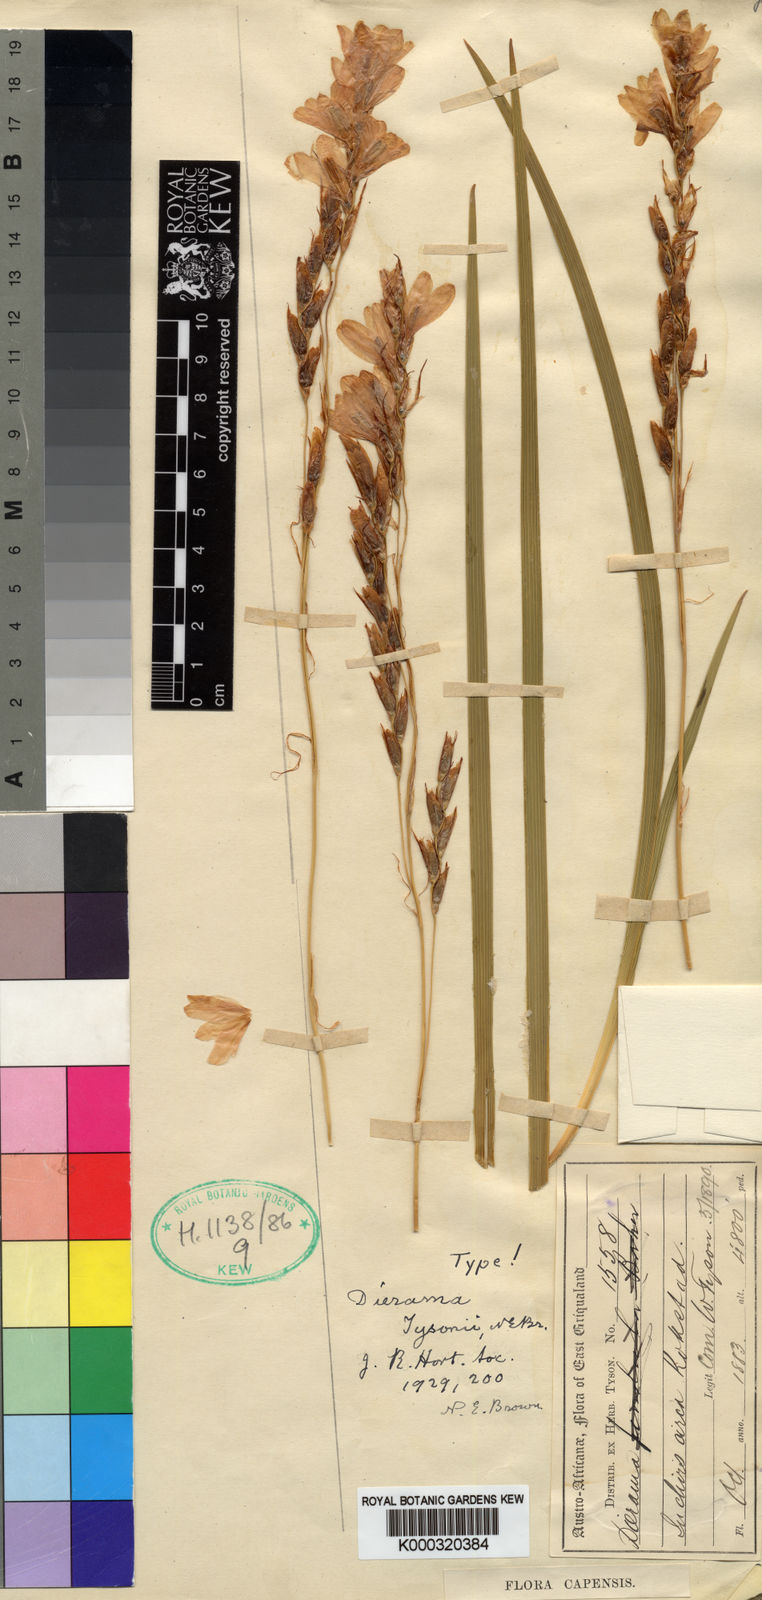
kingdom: Plantae
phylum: Tracheophyta
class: Liliopsida
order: Asparagales
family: Iridaceae
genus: Dierama
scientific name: Dierama tysonii
